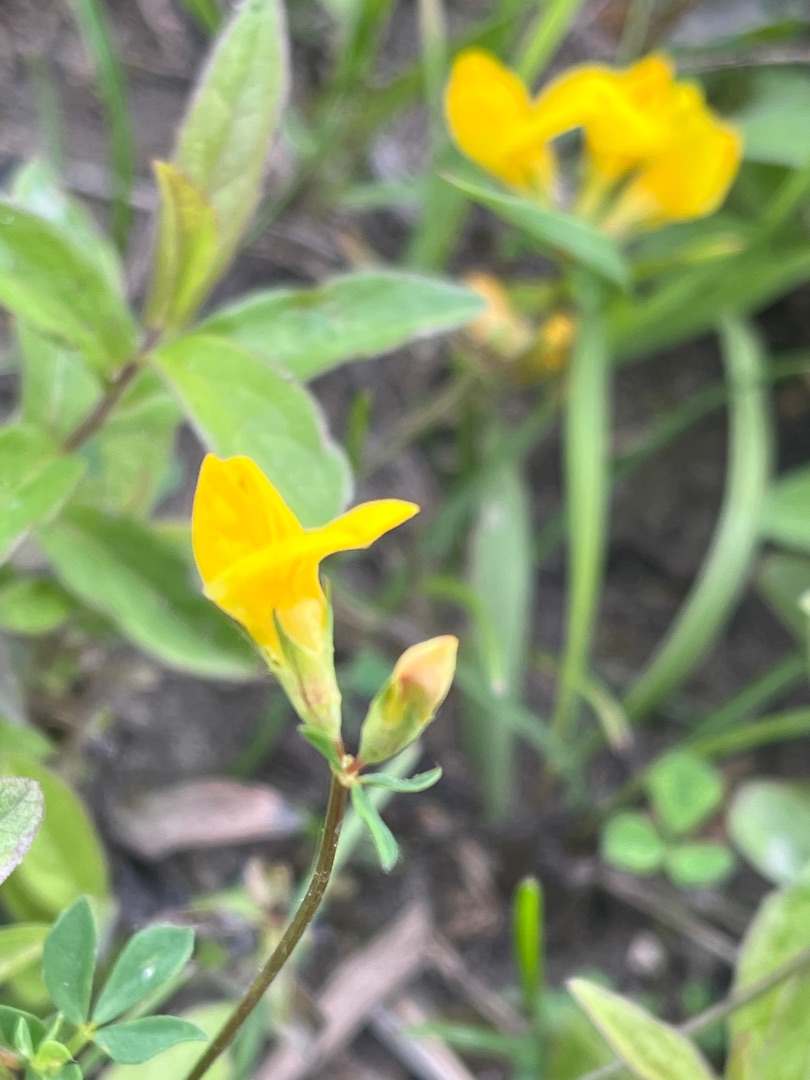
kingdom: Plantae
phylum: Tracheophyta
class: Magnoliopsida
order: Fabales
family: Fabaceae
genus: Lotus
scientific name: Lotus corniculatus
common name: Almindelig kællingetand
